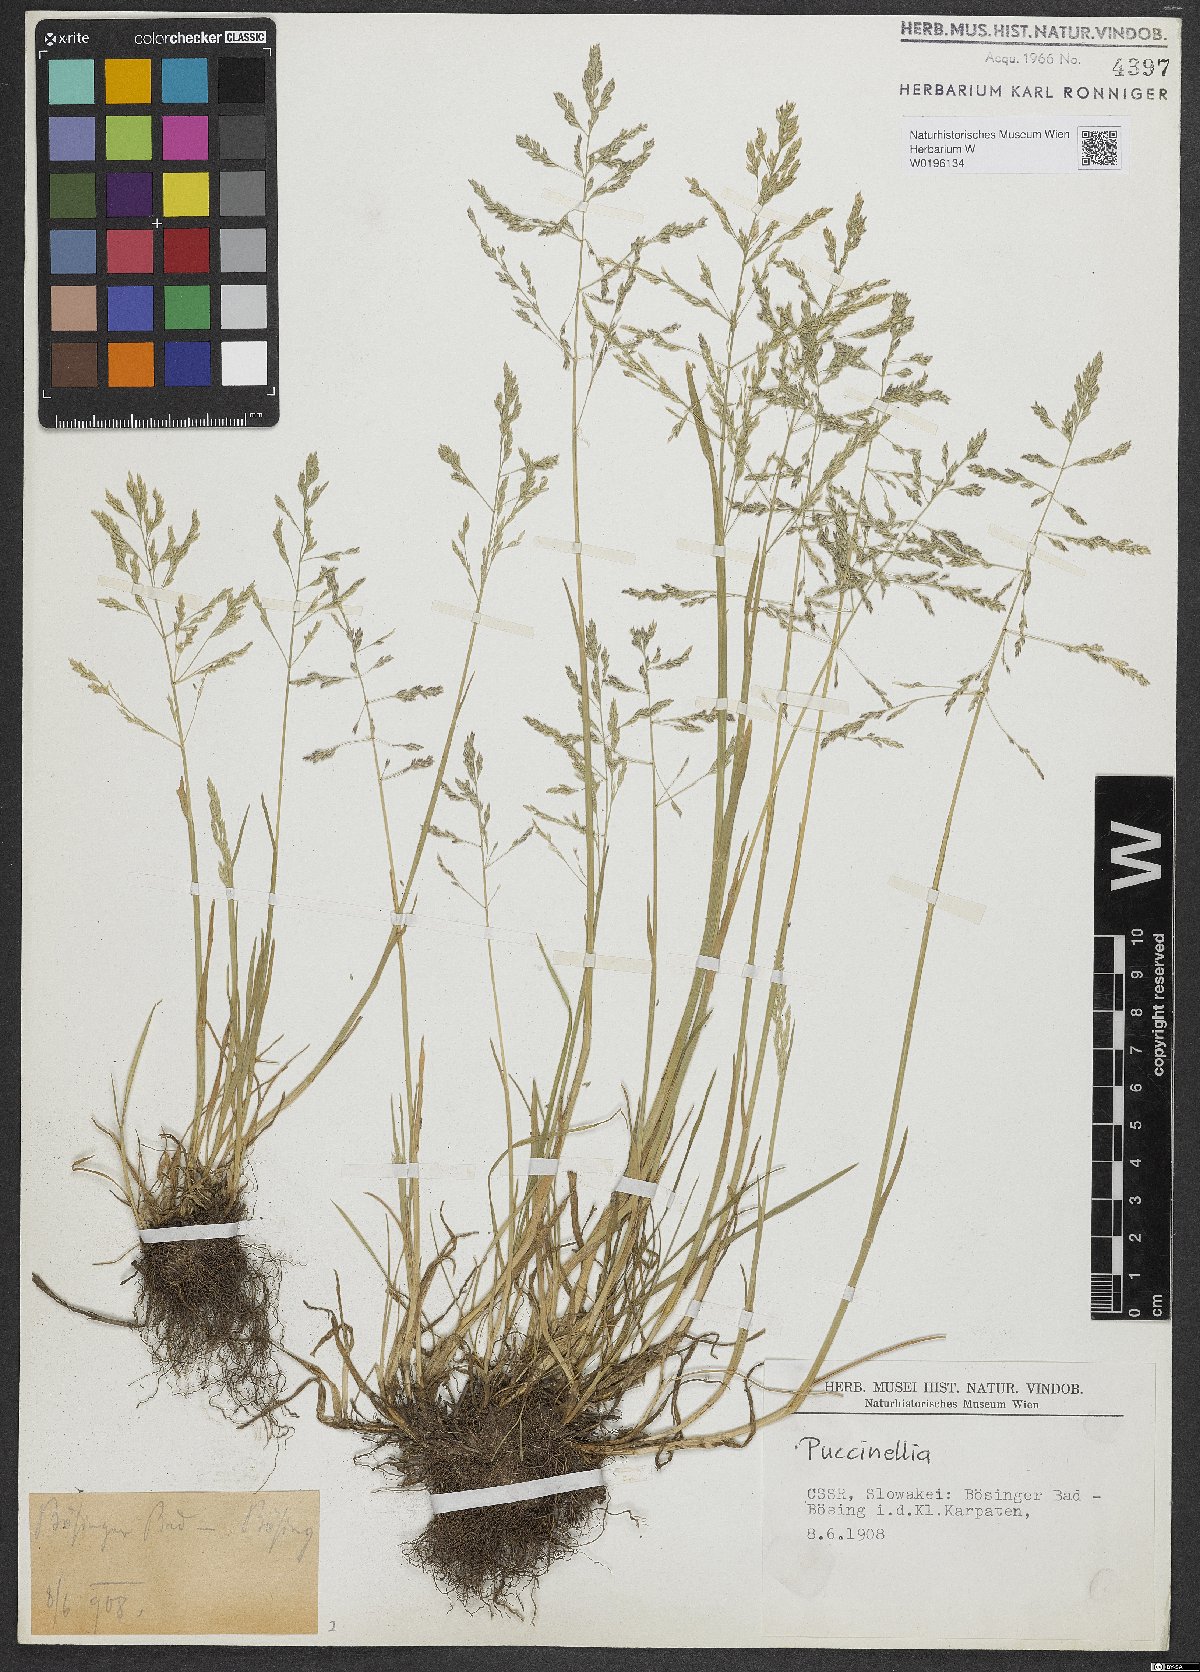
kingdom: Plantae
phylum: Tracheophyta
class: Liliopsida
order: Poales
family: Poaceae
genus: Puccinellia
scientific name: Puccinellia
